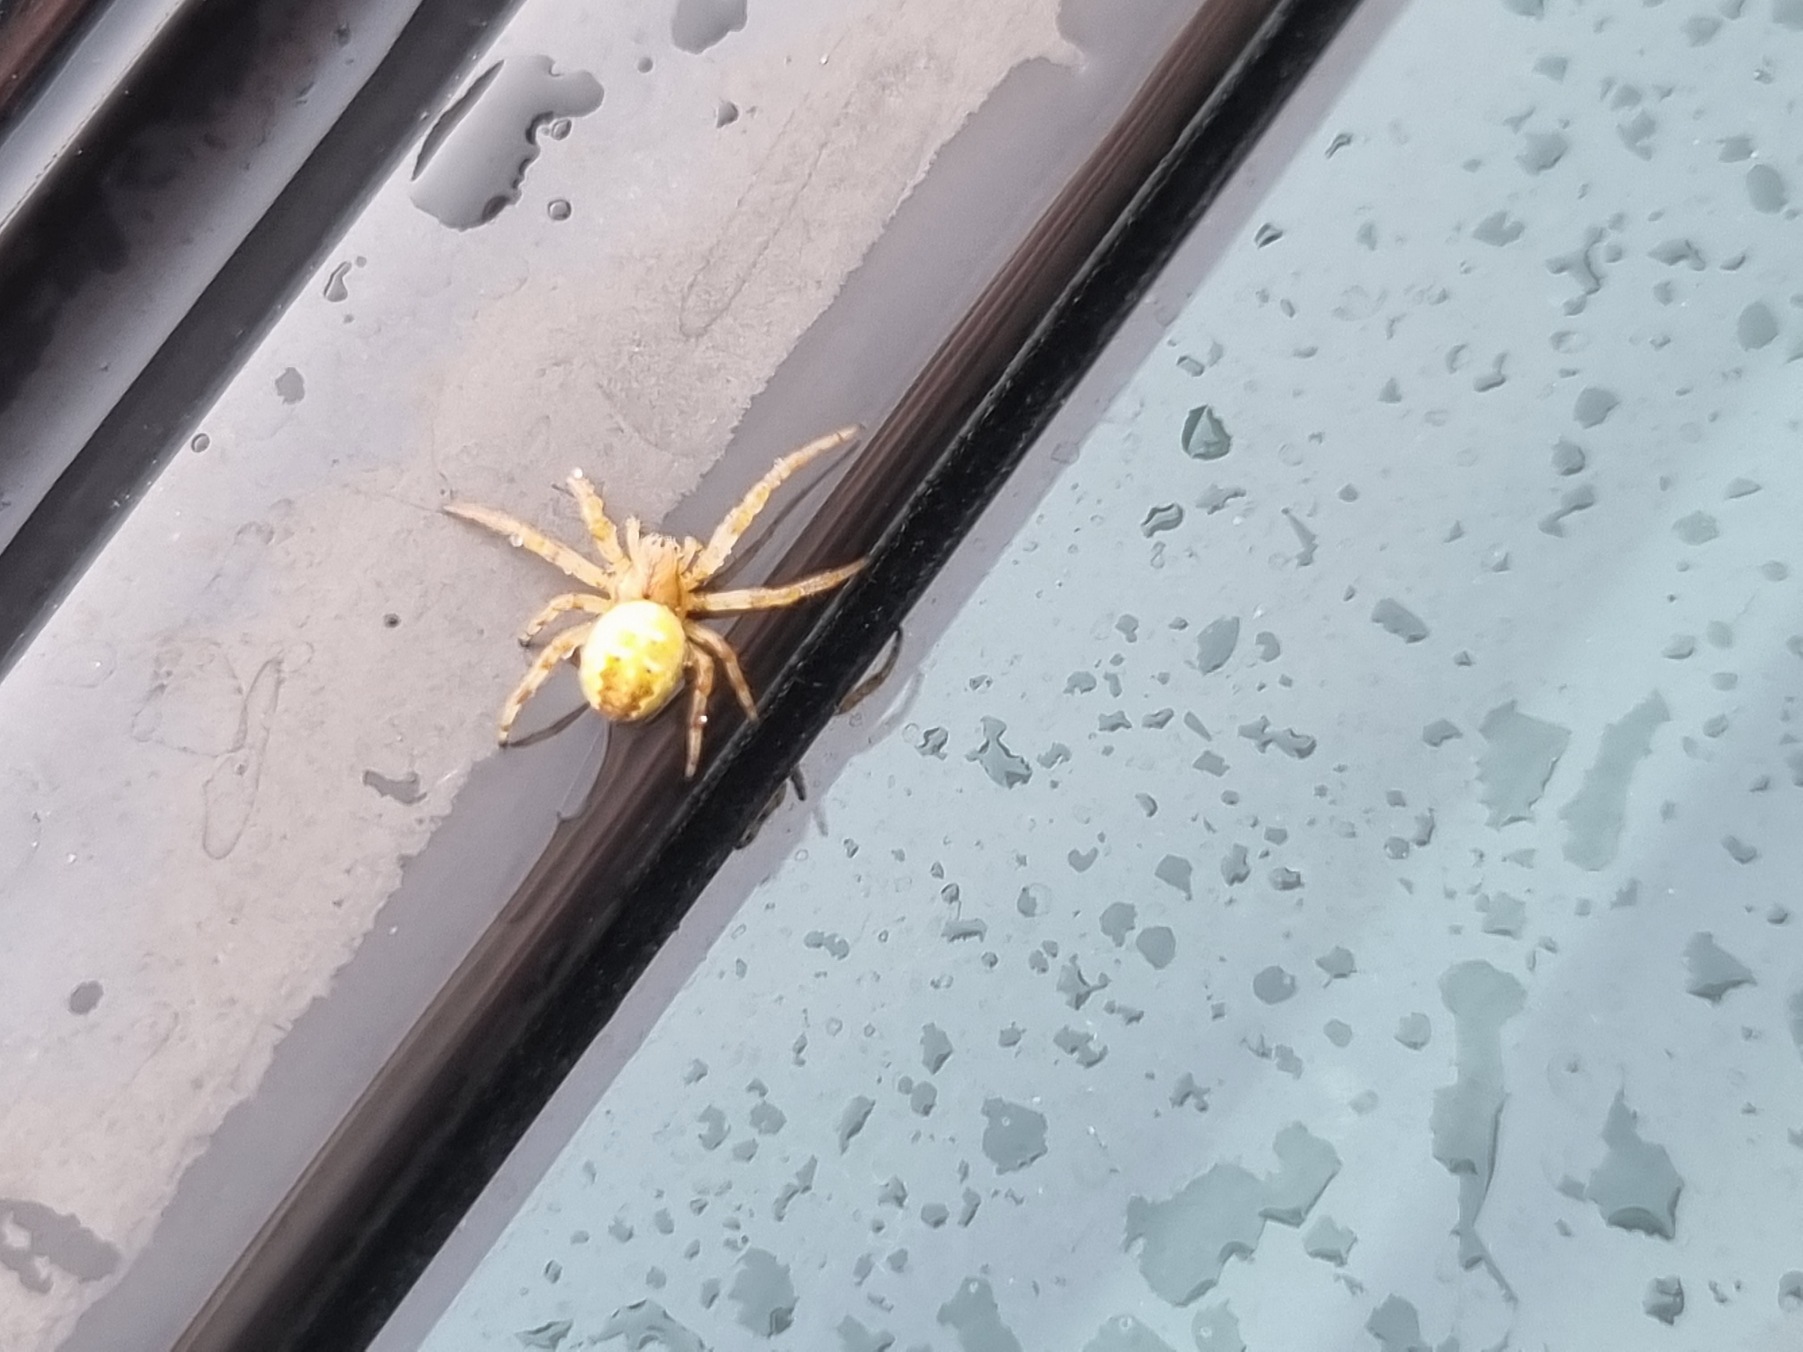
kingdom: Animalia
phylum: Arthropoda
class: Arachnida
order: Araneae
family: Araneidae
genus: Araneus
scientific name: Araneus quadratus
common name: Kvadratedderkop
